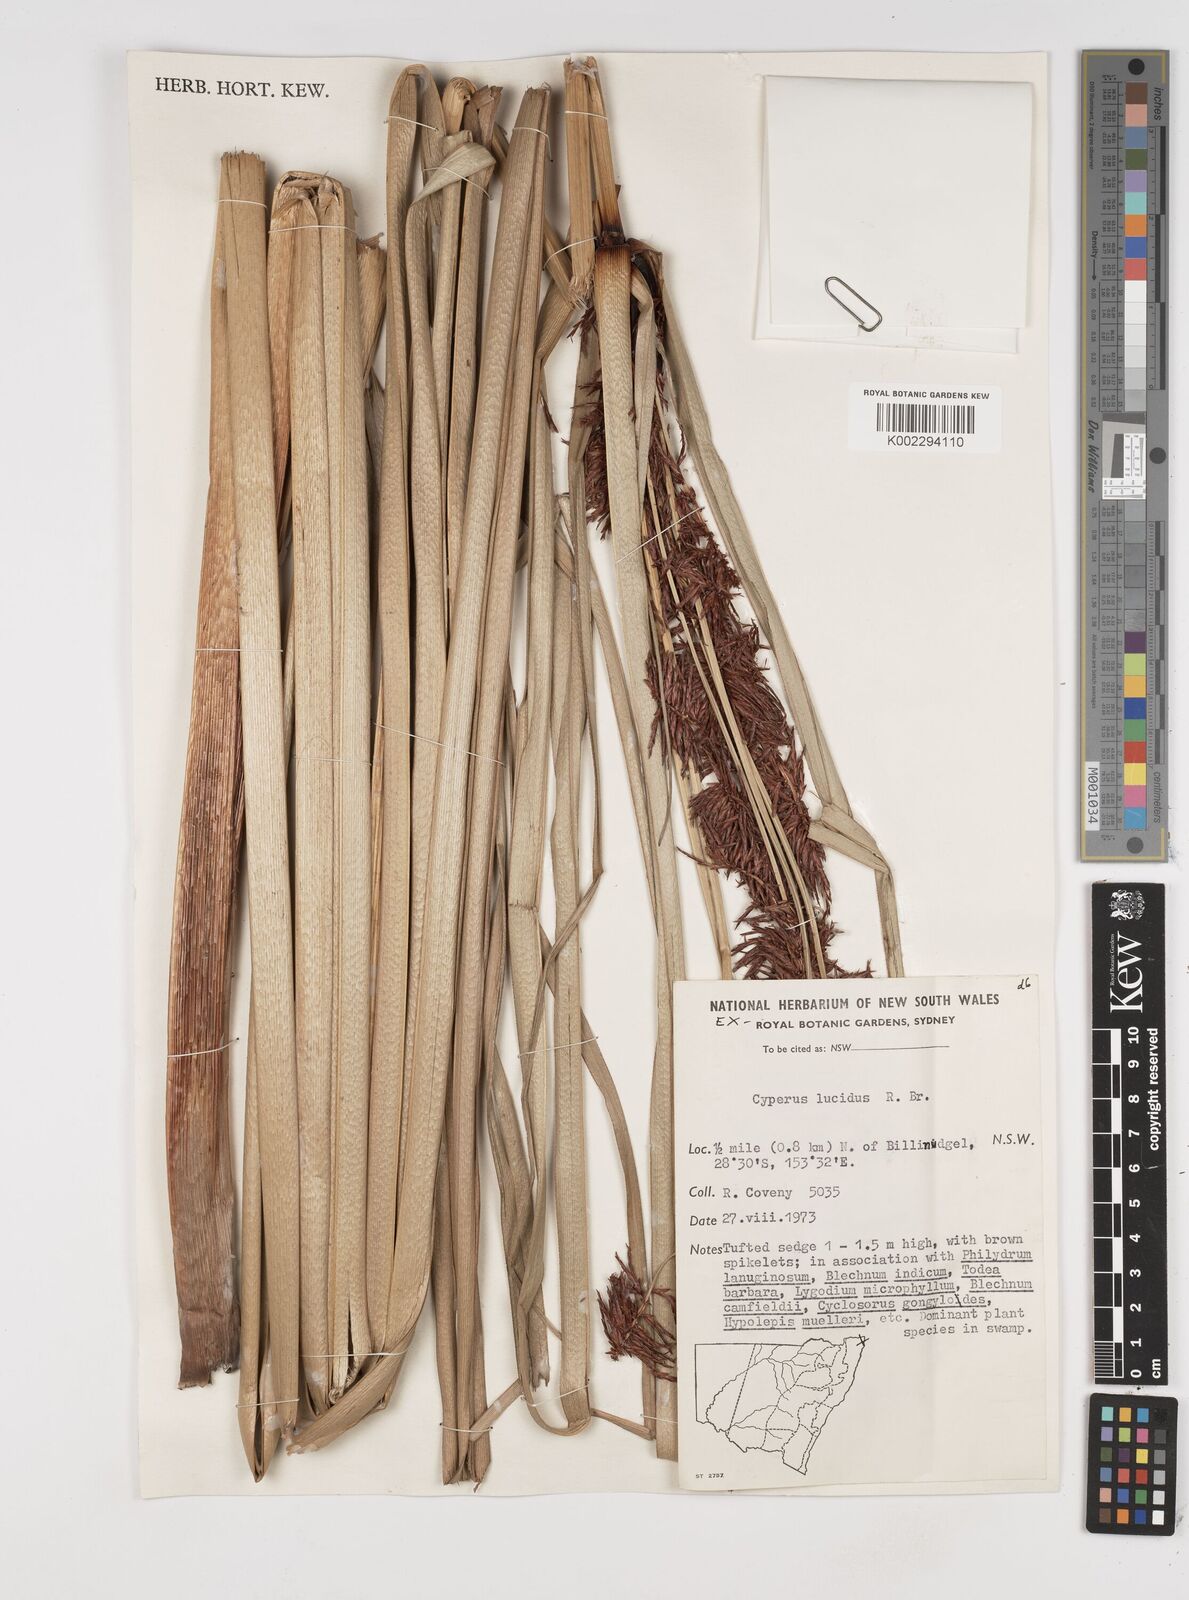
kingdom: Plantae
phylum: Tracheophyta
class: Liliopsida
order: Poales
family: Cyperaceae
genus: Cyperus
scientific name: Cyperus lucidus
